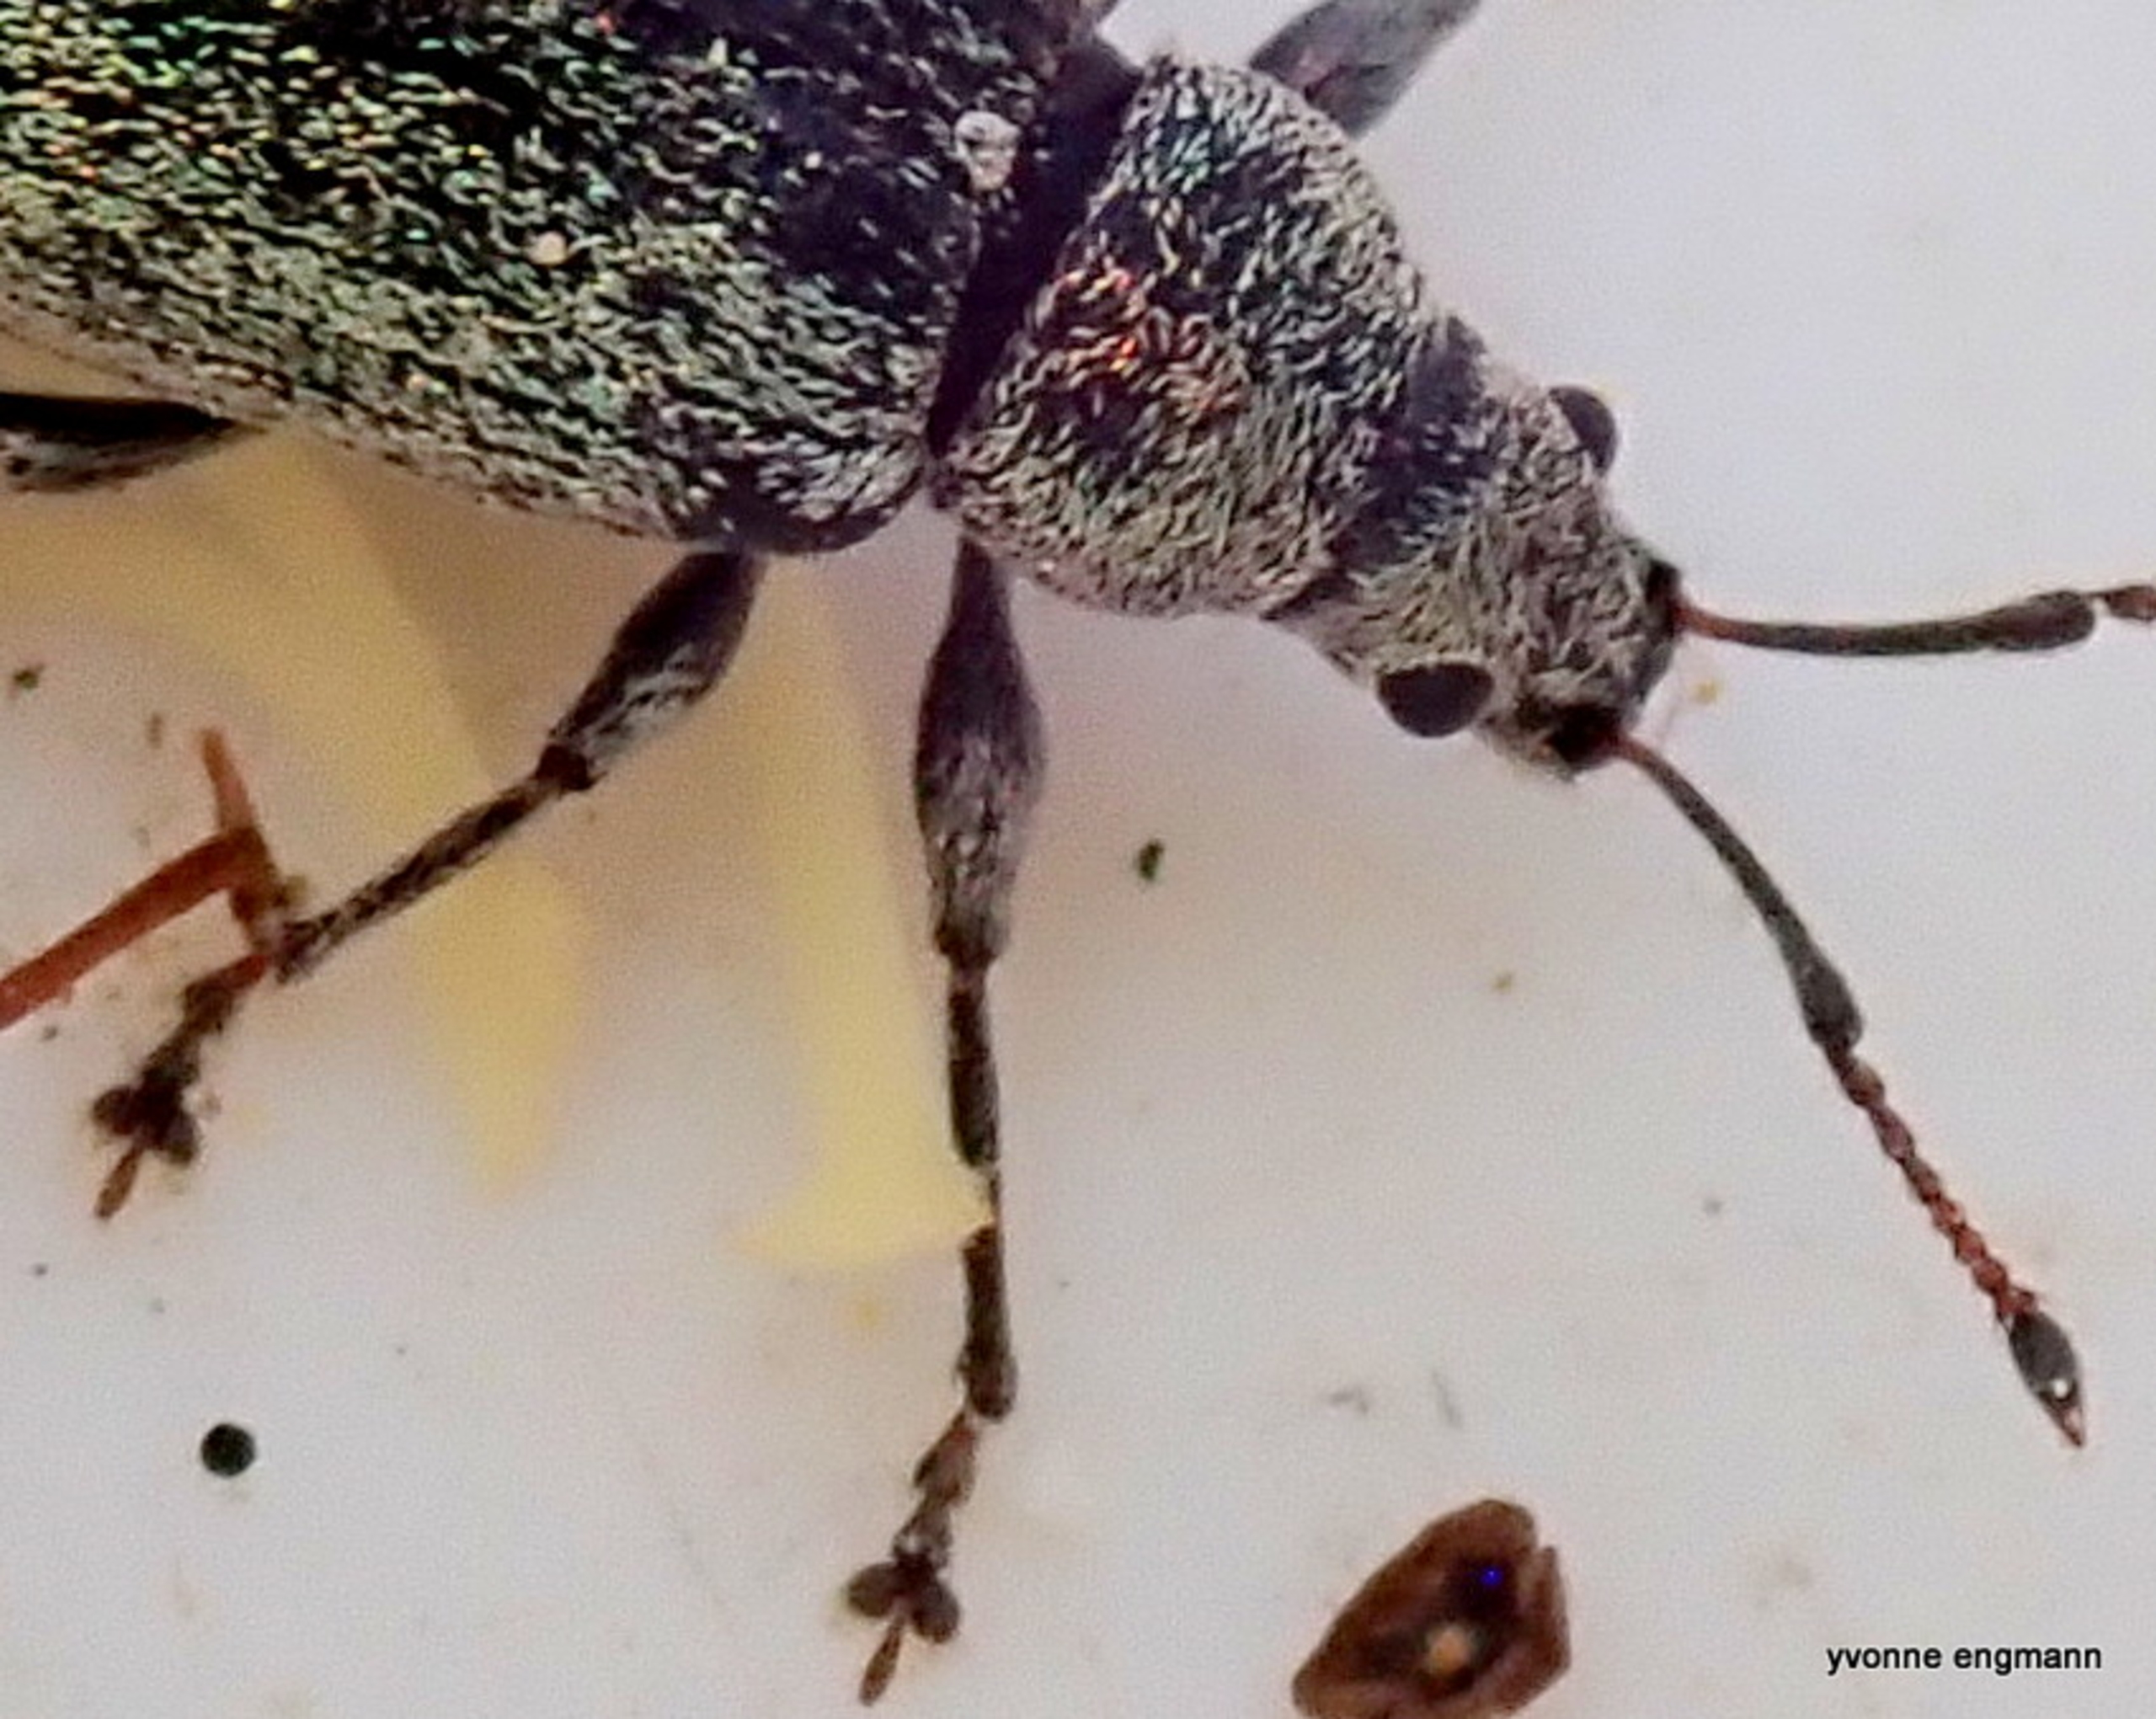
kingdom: Animalia
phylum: Arthropoda
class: Insecta
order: Coleoptera
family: Curculionidae
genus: Phyllobius
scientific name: Phyllobius pyri
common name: Pæreløvsnudebille
